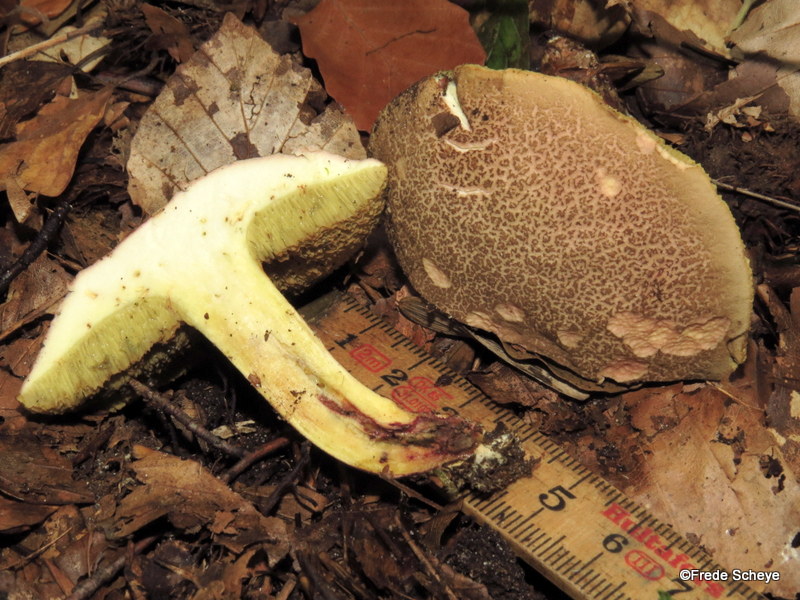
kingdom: Fungi
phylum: Basidiomycota
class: Agaricomycetes
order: Boletales
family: Boletaceae
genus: Xerocomellus
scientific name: Xerocomellus chrysenteron
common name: rødsprukken rørhat
